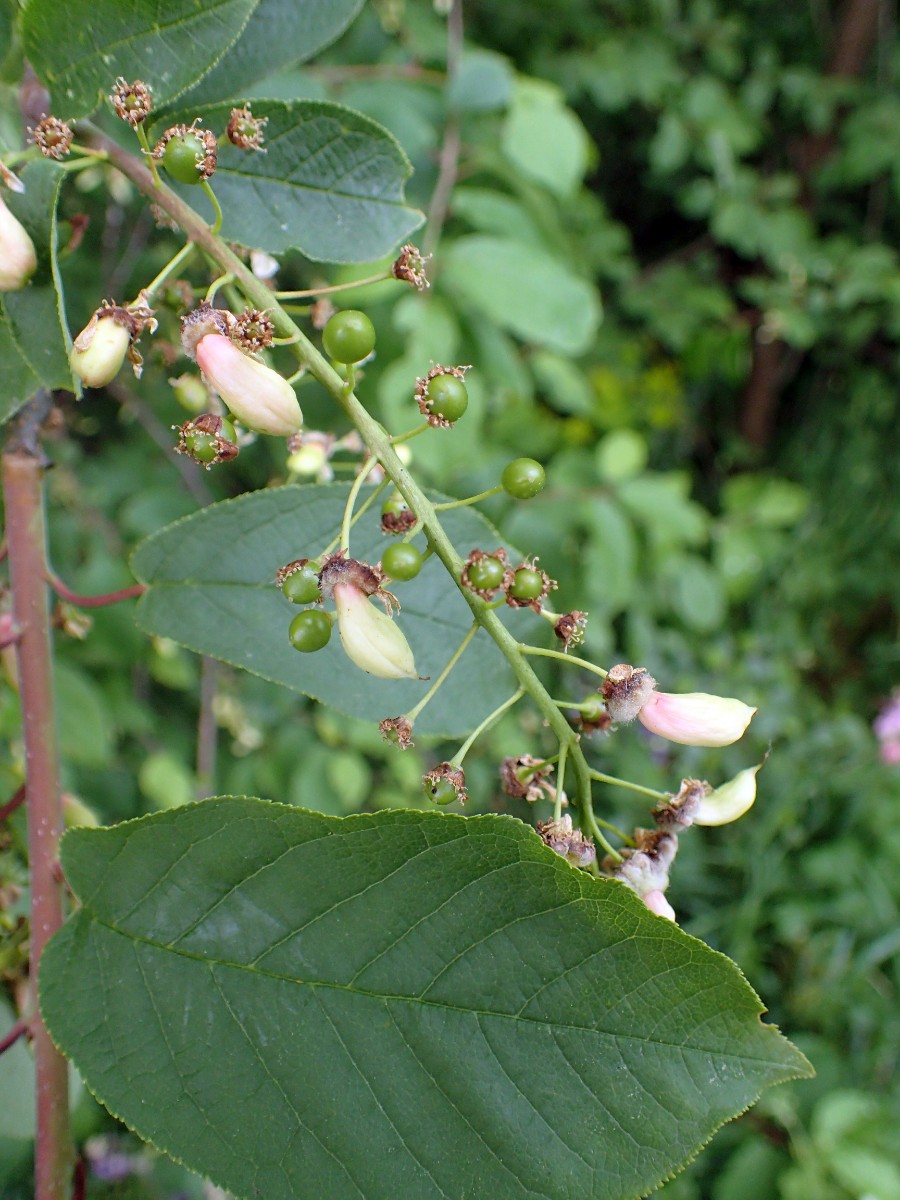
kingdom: Fungi
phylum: Ascomycota
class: Taphrinomycetes
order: Taphrinales
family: Taphrinaceae
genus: Taphrina
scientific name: Taphrina padi
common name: Bird cherry pocket
